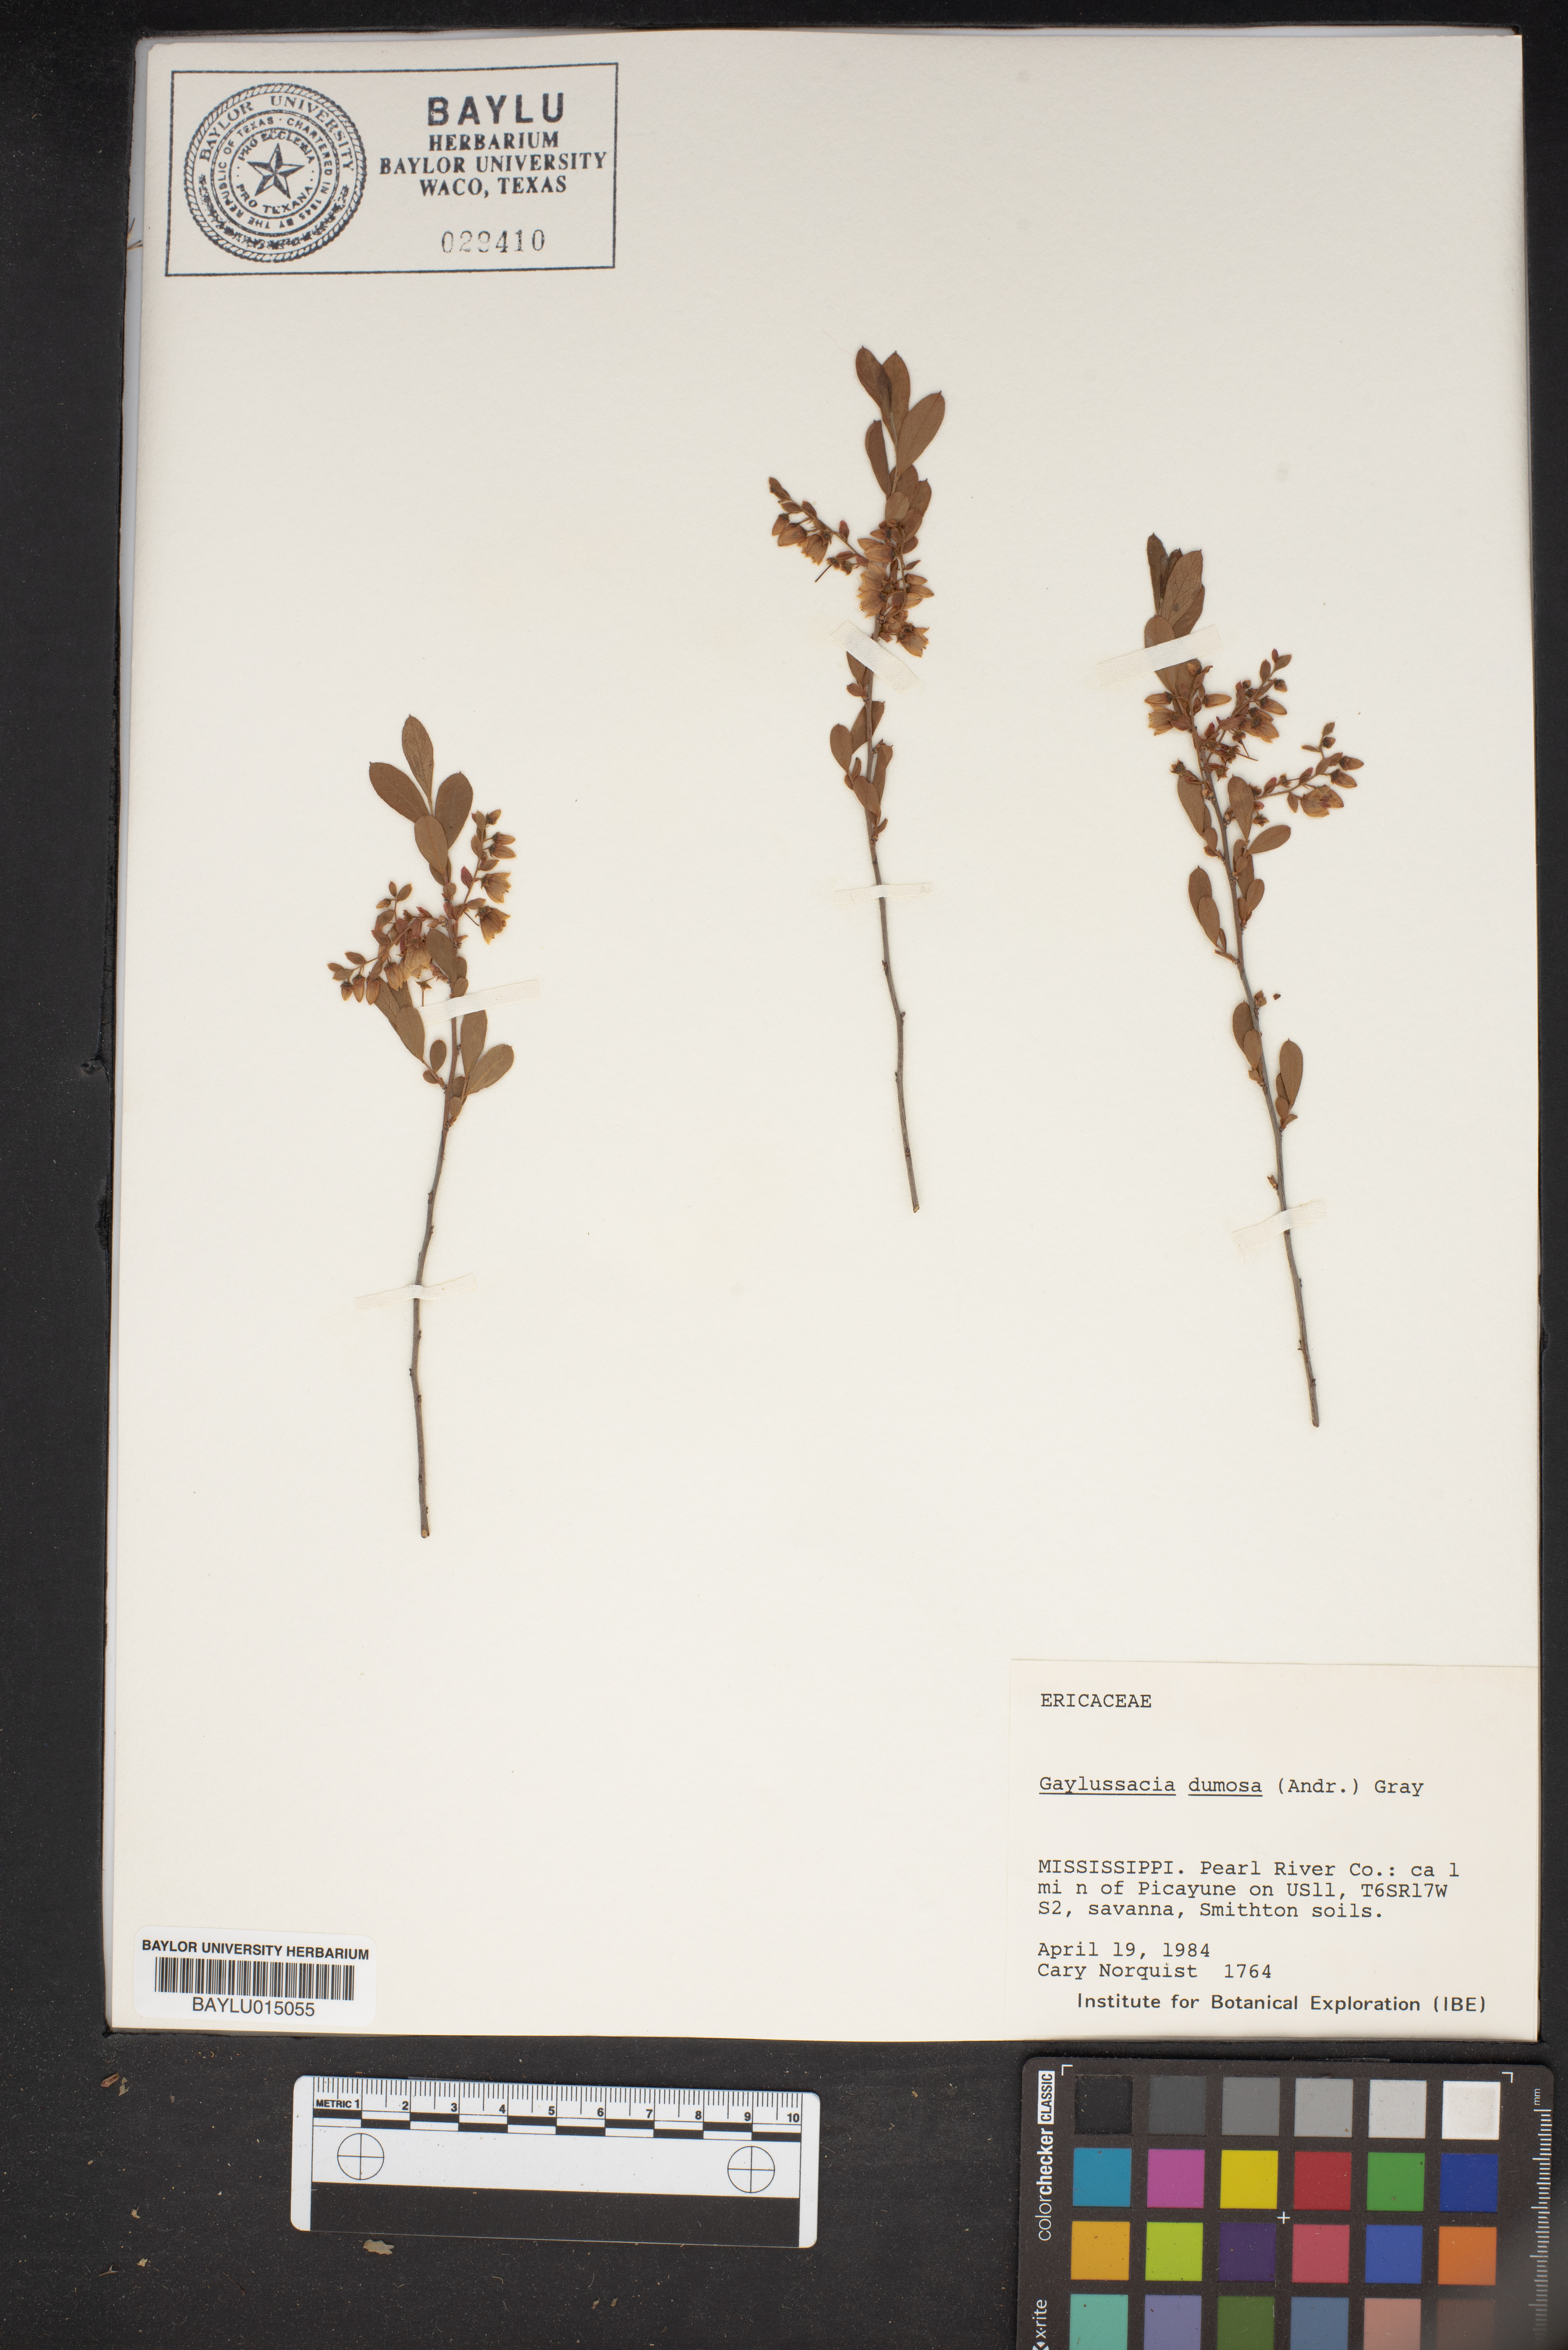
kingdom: Plantae
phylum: Tracheophyta
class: Magnoliopsida
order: Ericales
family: Ericaceae
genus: Gaylussacia
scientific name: Gaylussacia dumosa
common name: Dwarf huckleberry
